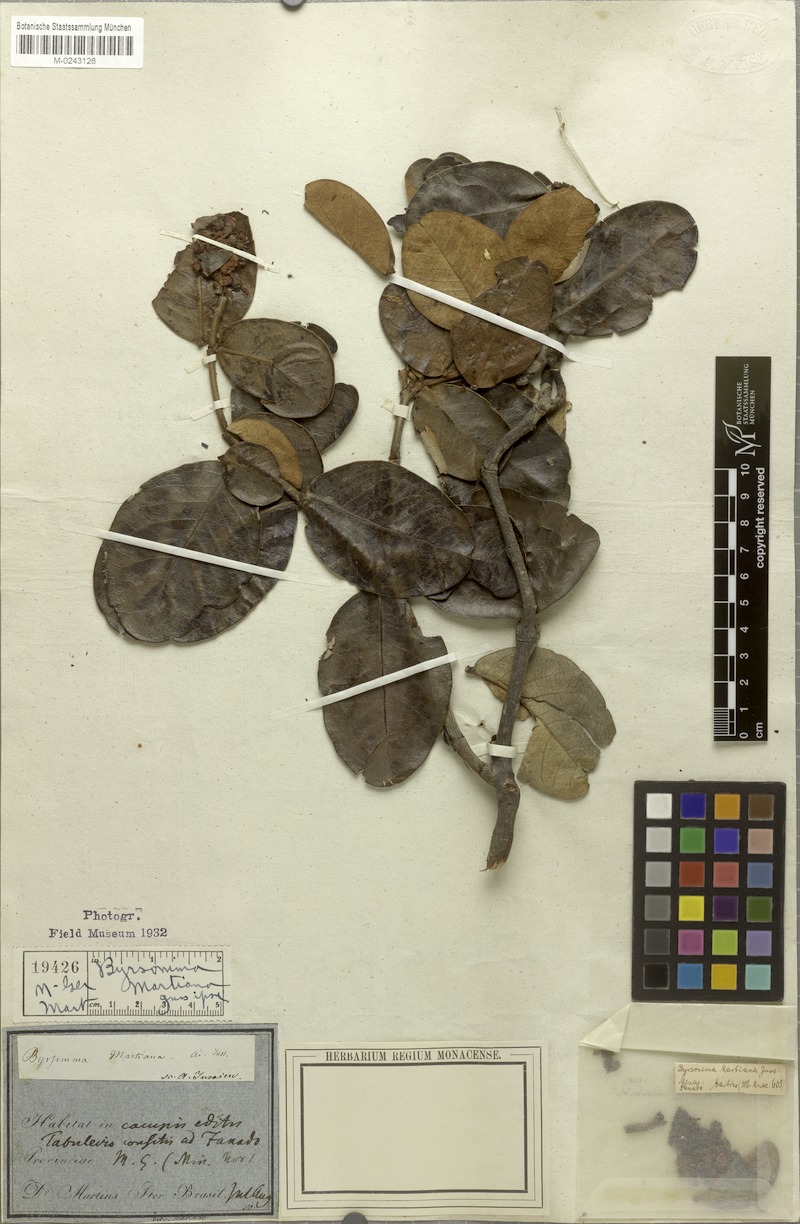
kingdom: Plantae
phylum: Tracheophyta
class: Magnoliopsida
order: Malpighiales
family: Malpighiaceae
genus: Byrsonima
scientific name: Byrsonima martiana
